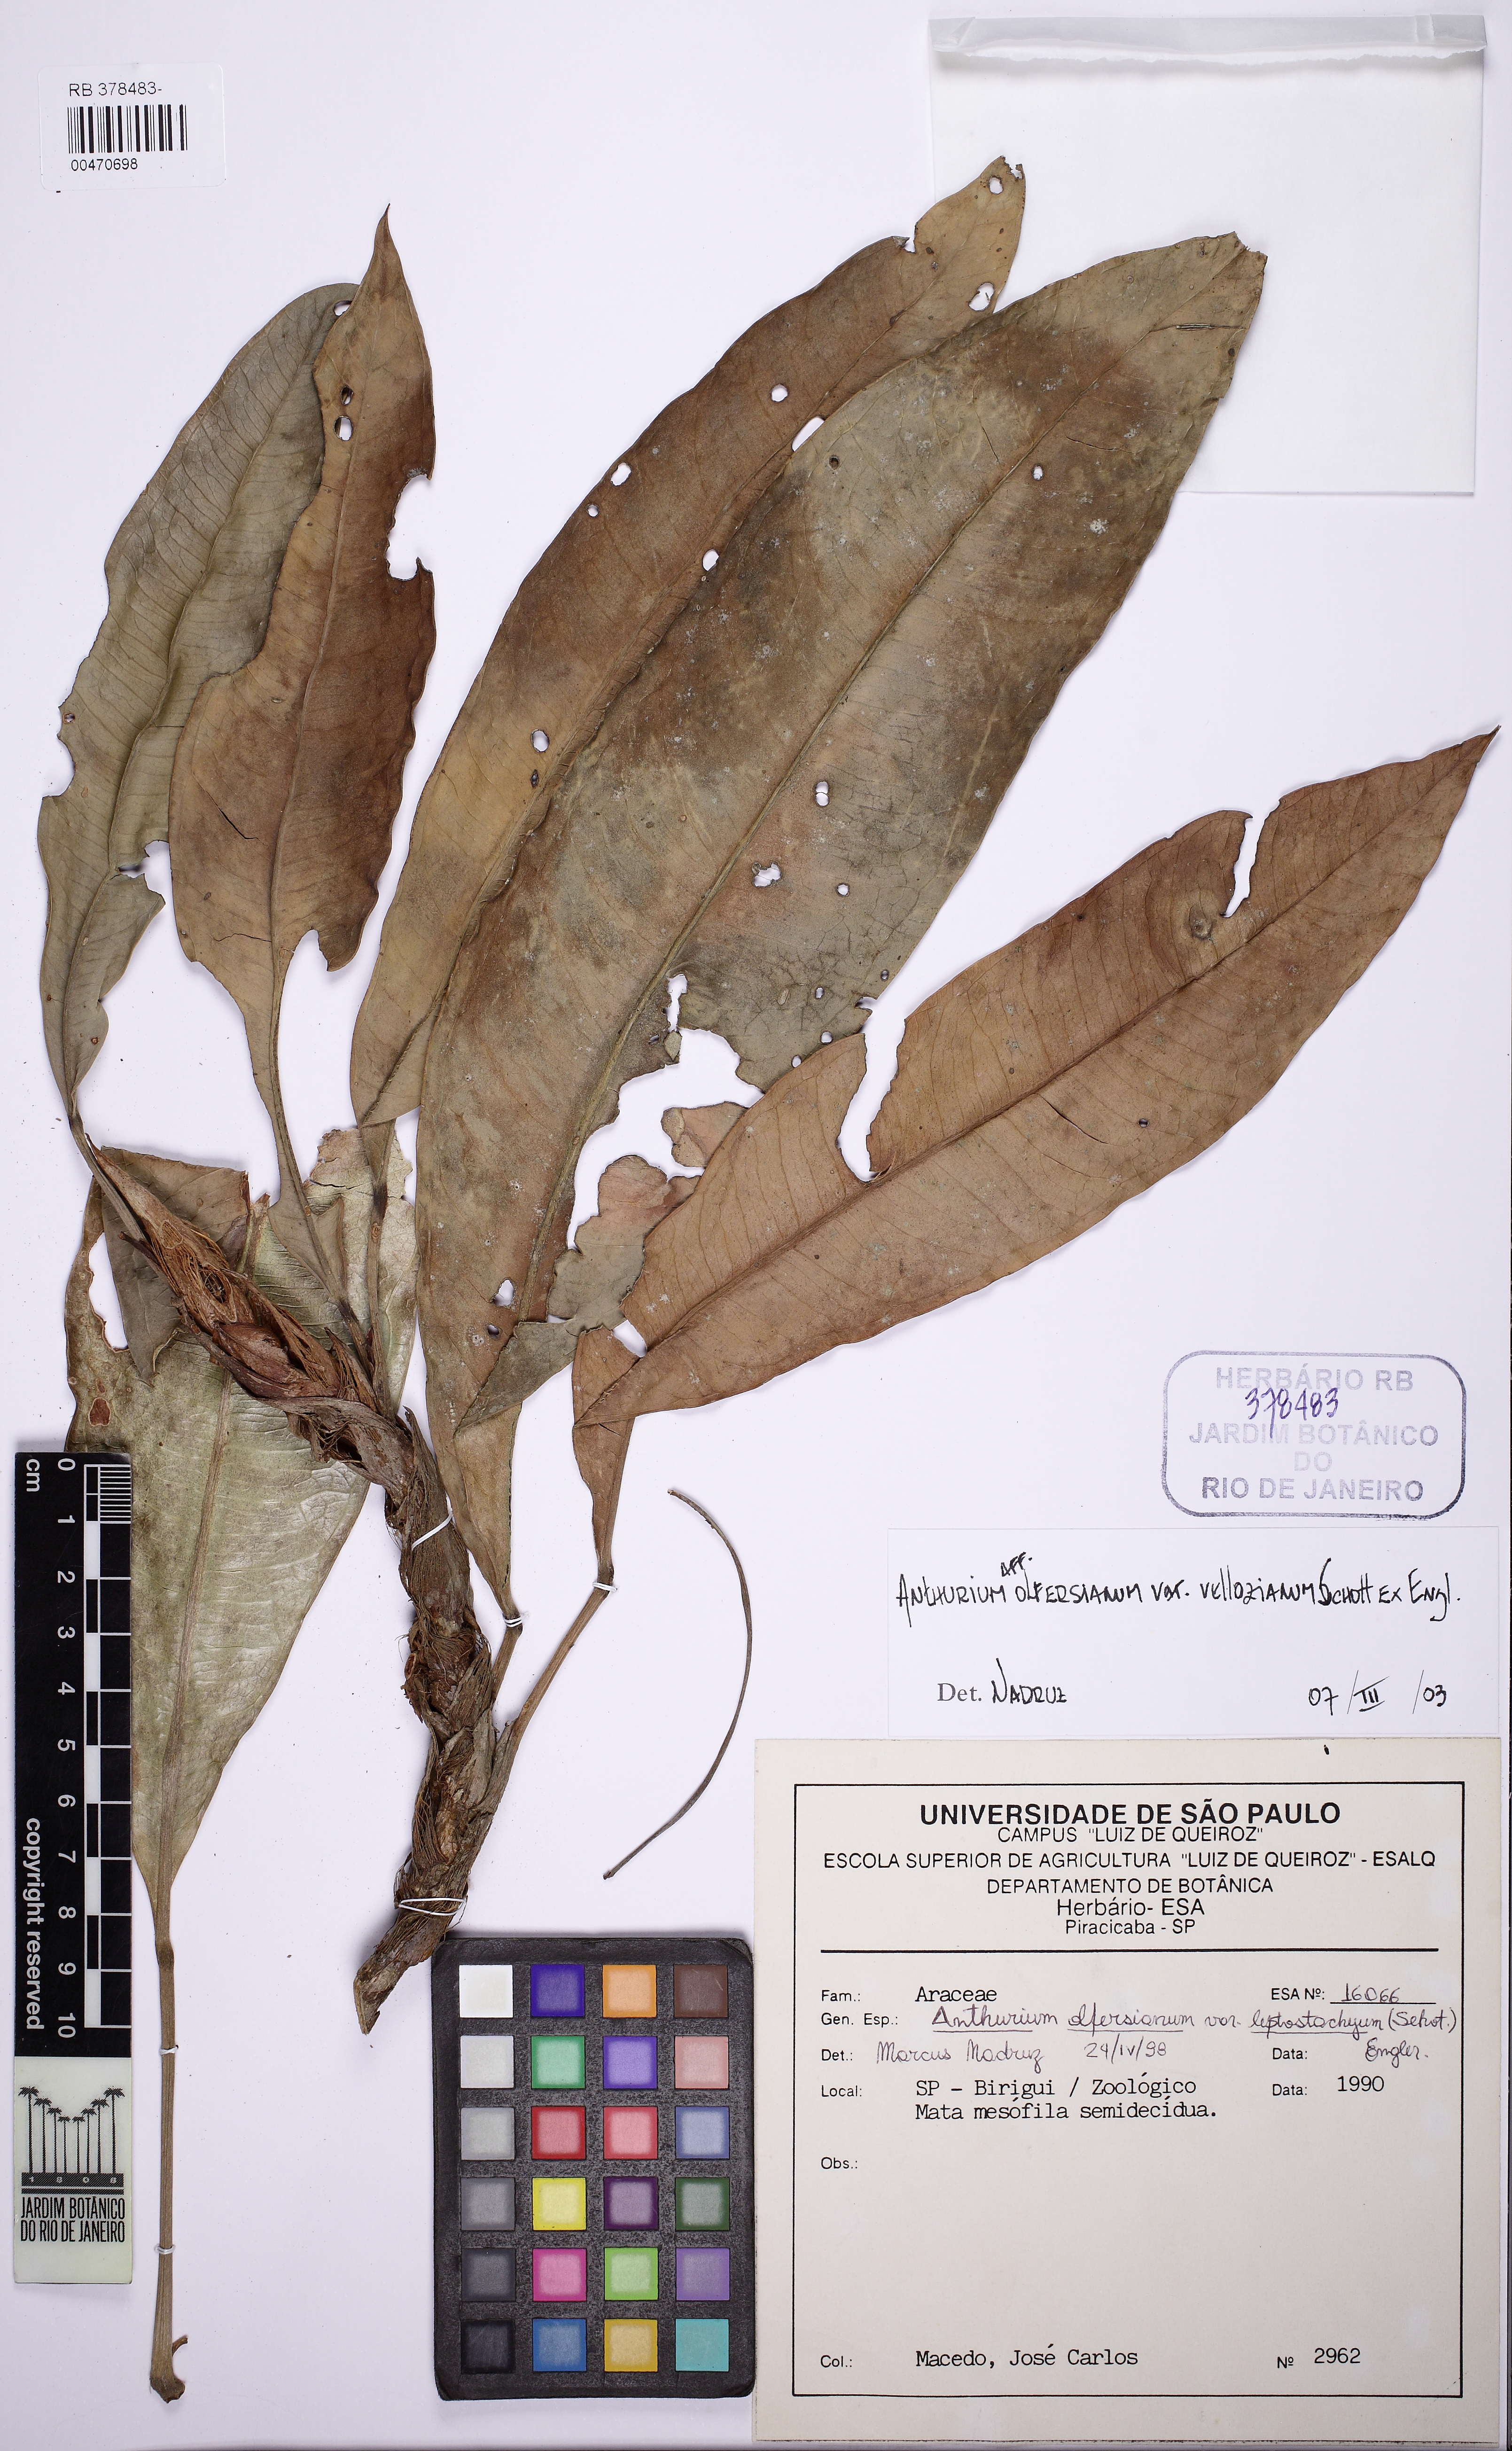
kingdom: Plantae
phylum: Tracheophyta
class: Liliopsida
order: Alismatales
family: Araceae
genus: Anthurium
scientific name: Anthurium parasiticum
